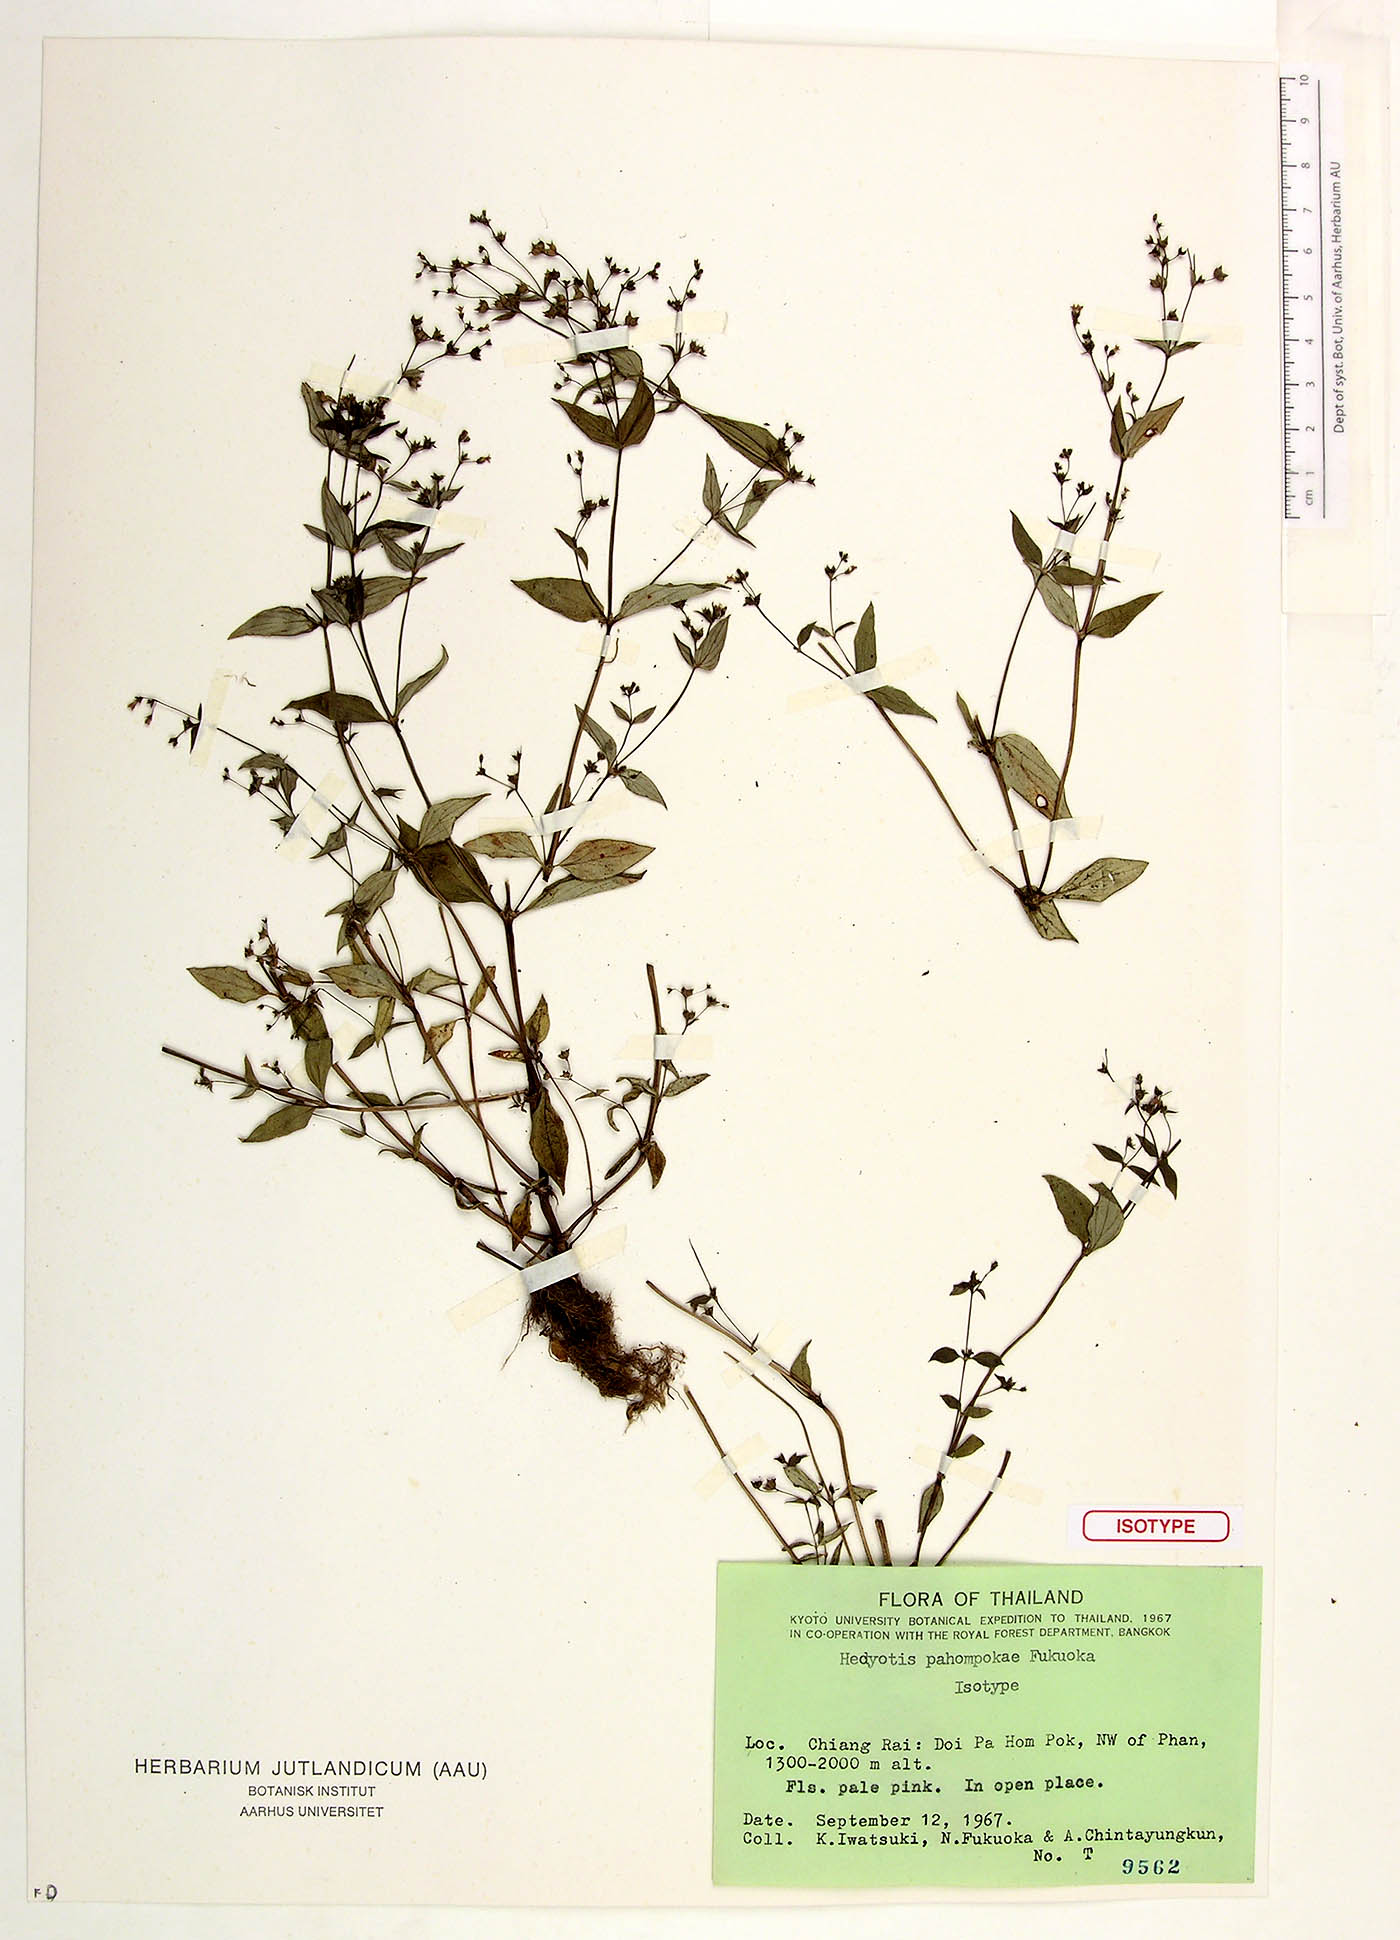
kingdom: Plantae
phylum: Tracheophyta
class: Magnoliopsida
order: Gentianales
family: Rubiaceae
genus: Neanotis
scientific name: Neanotis calycina
